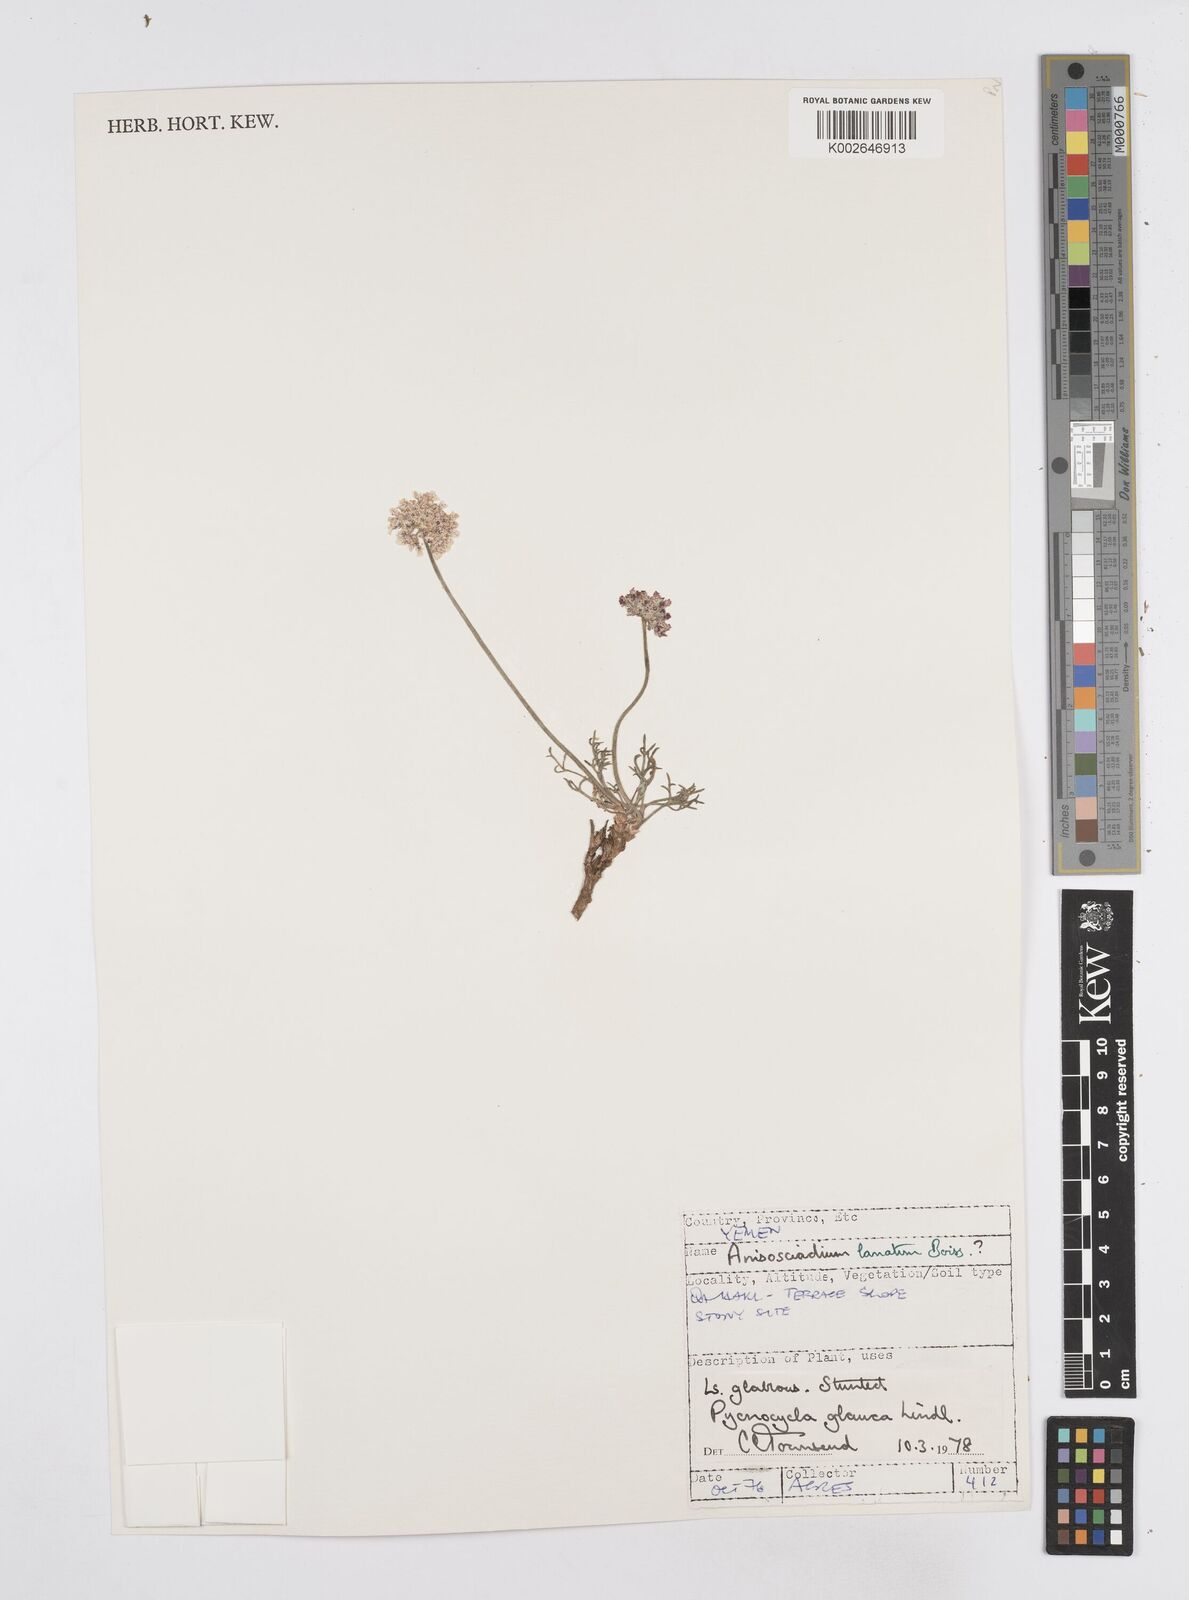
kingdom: Plantae
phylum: Tracheophyta
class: Magnoliopsida
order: Apiales
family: Apiaceae
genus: Pycnocycla
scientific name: Pycnocycla glauca
